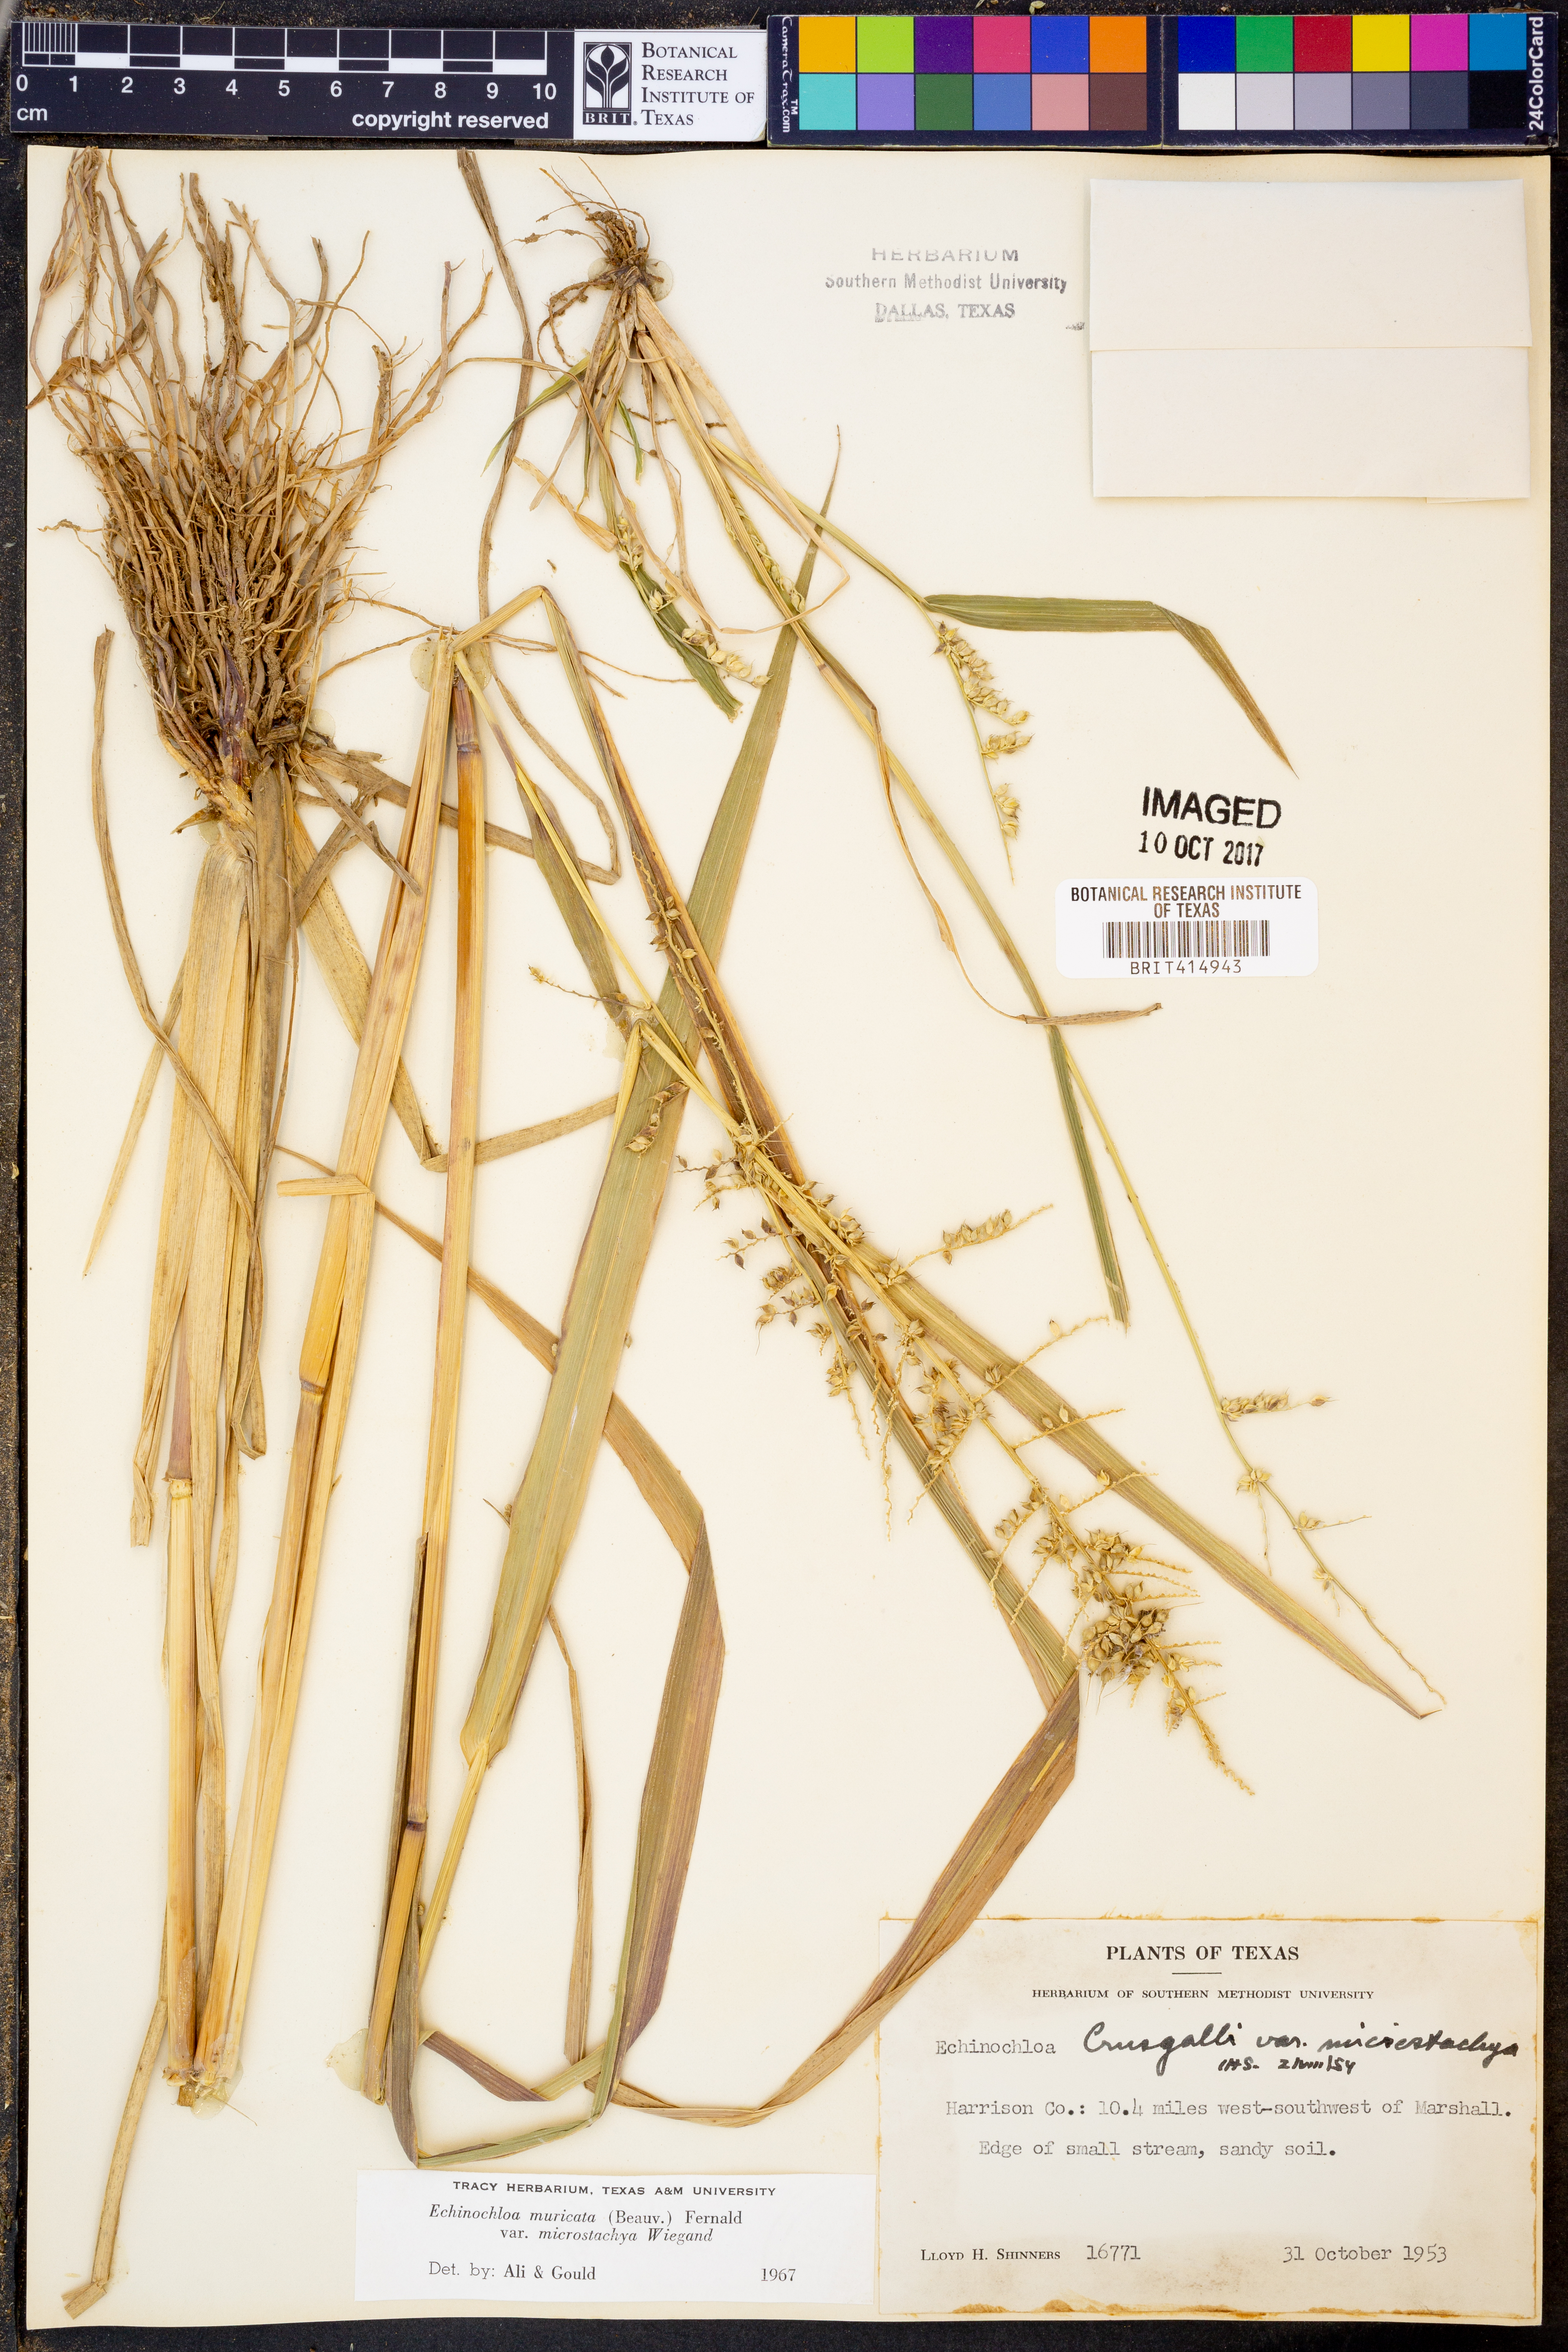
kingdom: Plantae
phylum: Tracheophyta
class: Liliopsida
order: Poales
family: Poaceae
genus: Echinochloa
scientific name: Echinochloa muricata
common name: American barnyard grass
